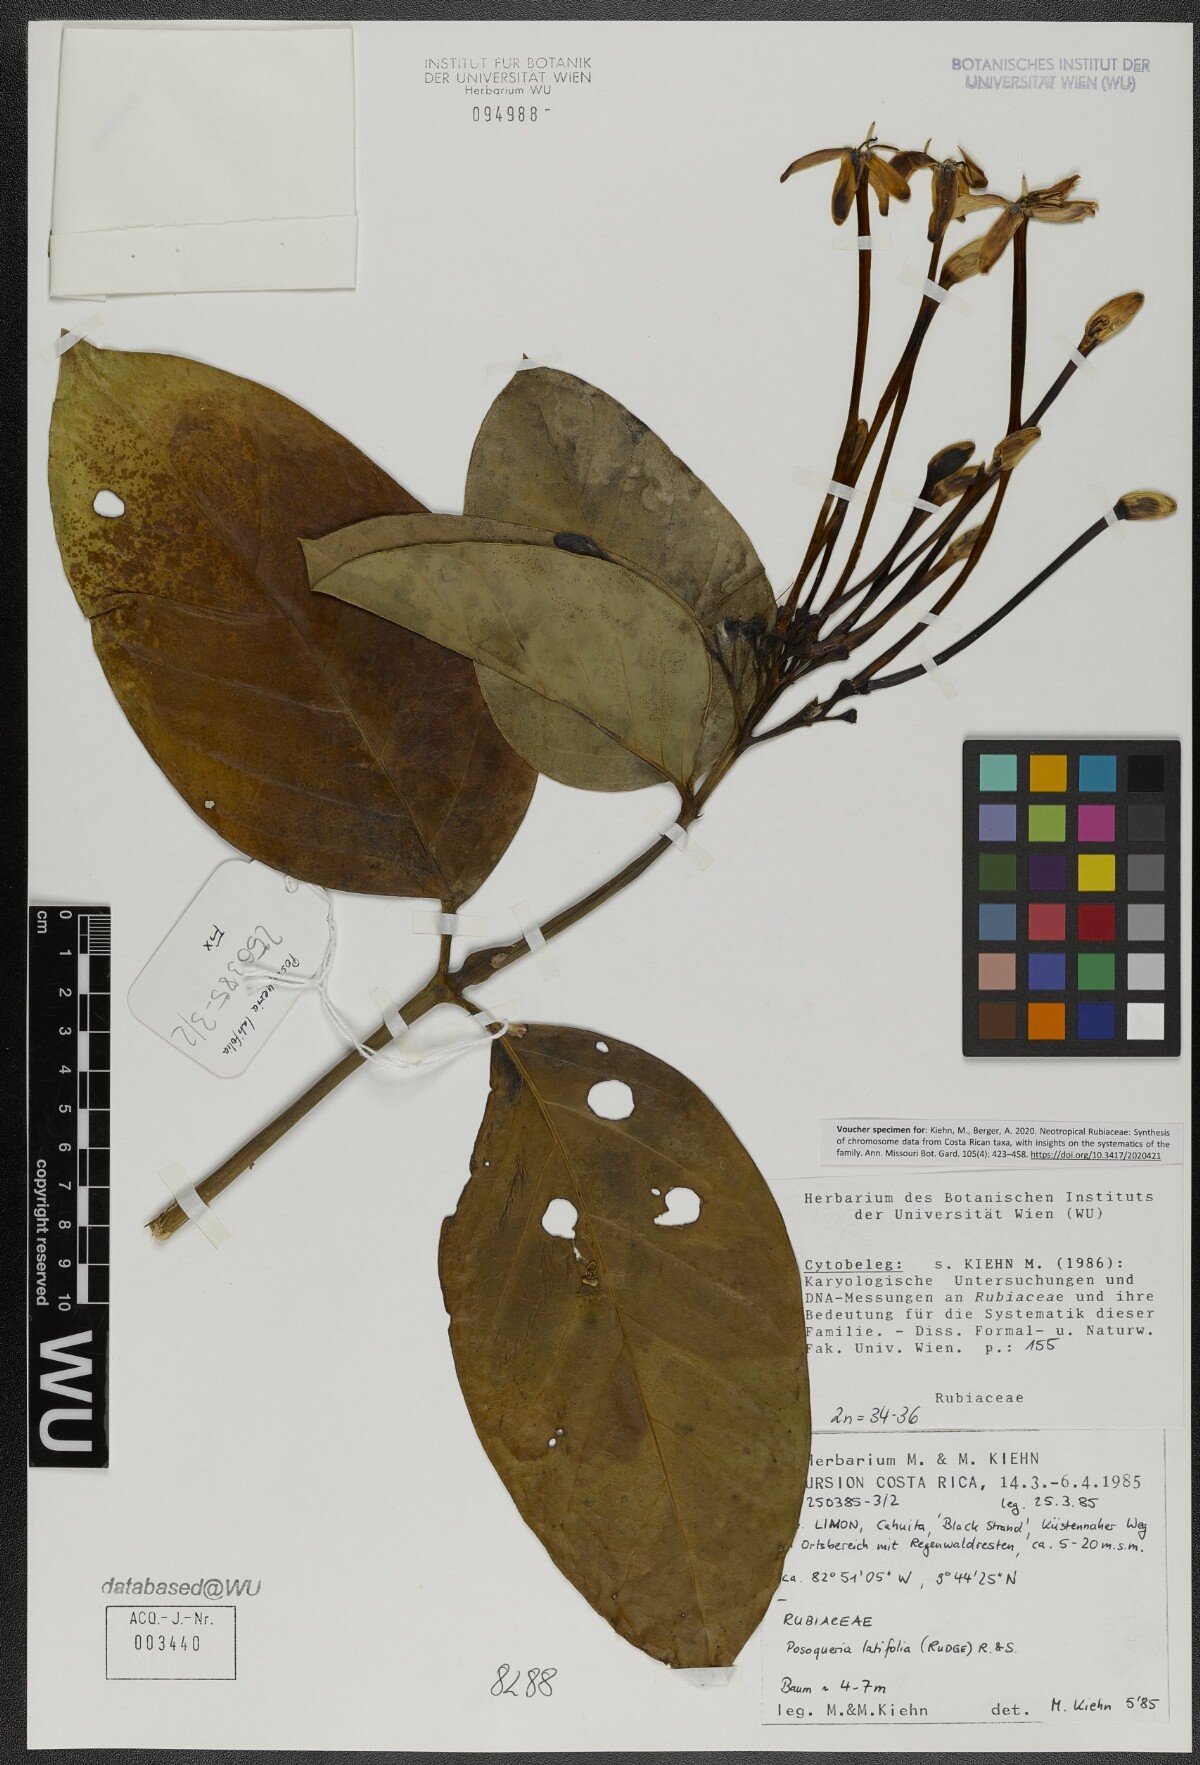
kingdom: Plantae
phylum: Tracheophyta
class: Magnoliopsida
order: Gentianales
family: Rubiaceae
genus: Posoqueria
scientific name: Posoqueria latifolia
